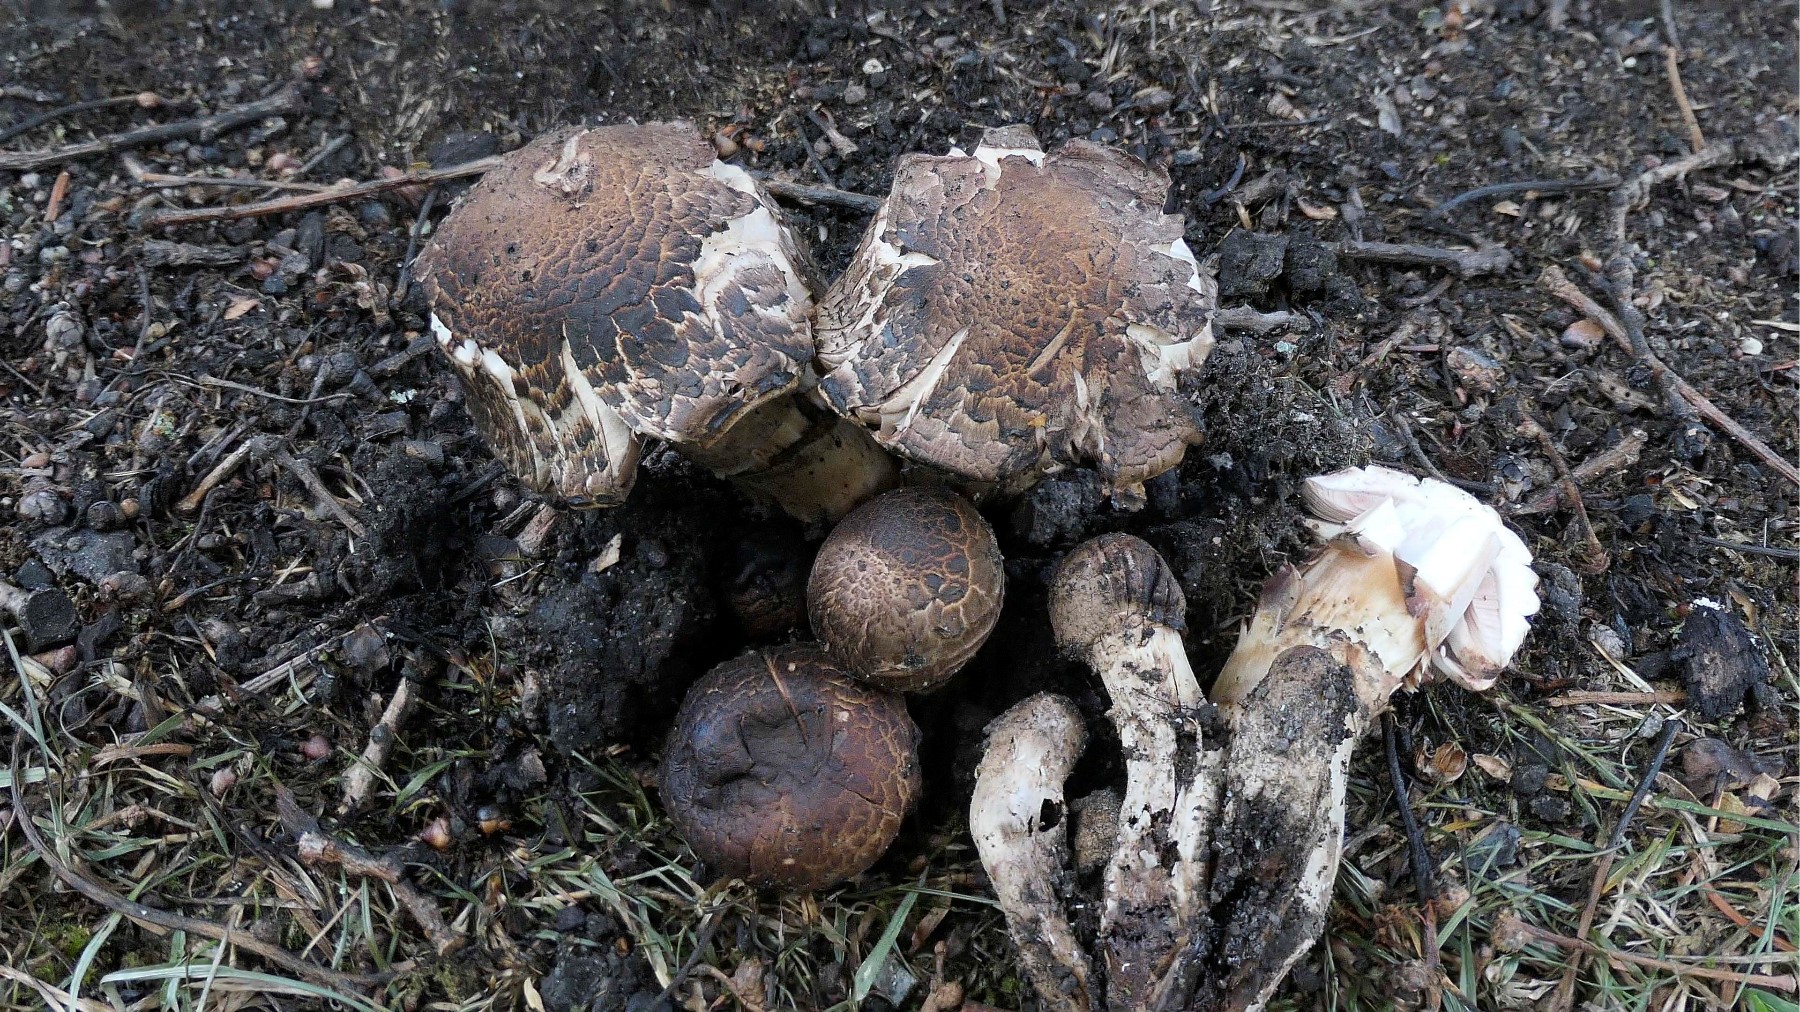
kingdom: Fungi
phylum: Basidiomycota
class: Agaricomycetes
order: Agaricales
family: Agaricaceae
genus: Agaricus
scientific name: Agaricus subperonatus
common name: knippe-champignon
